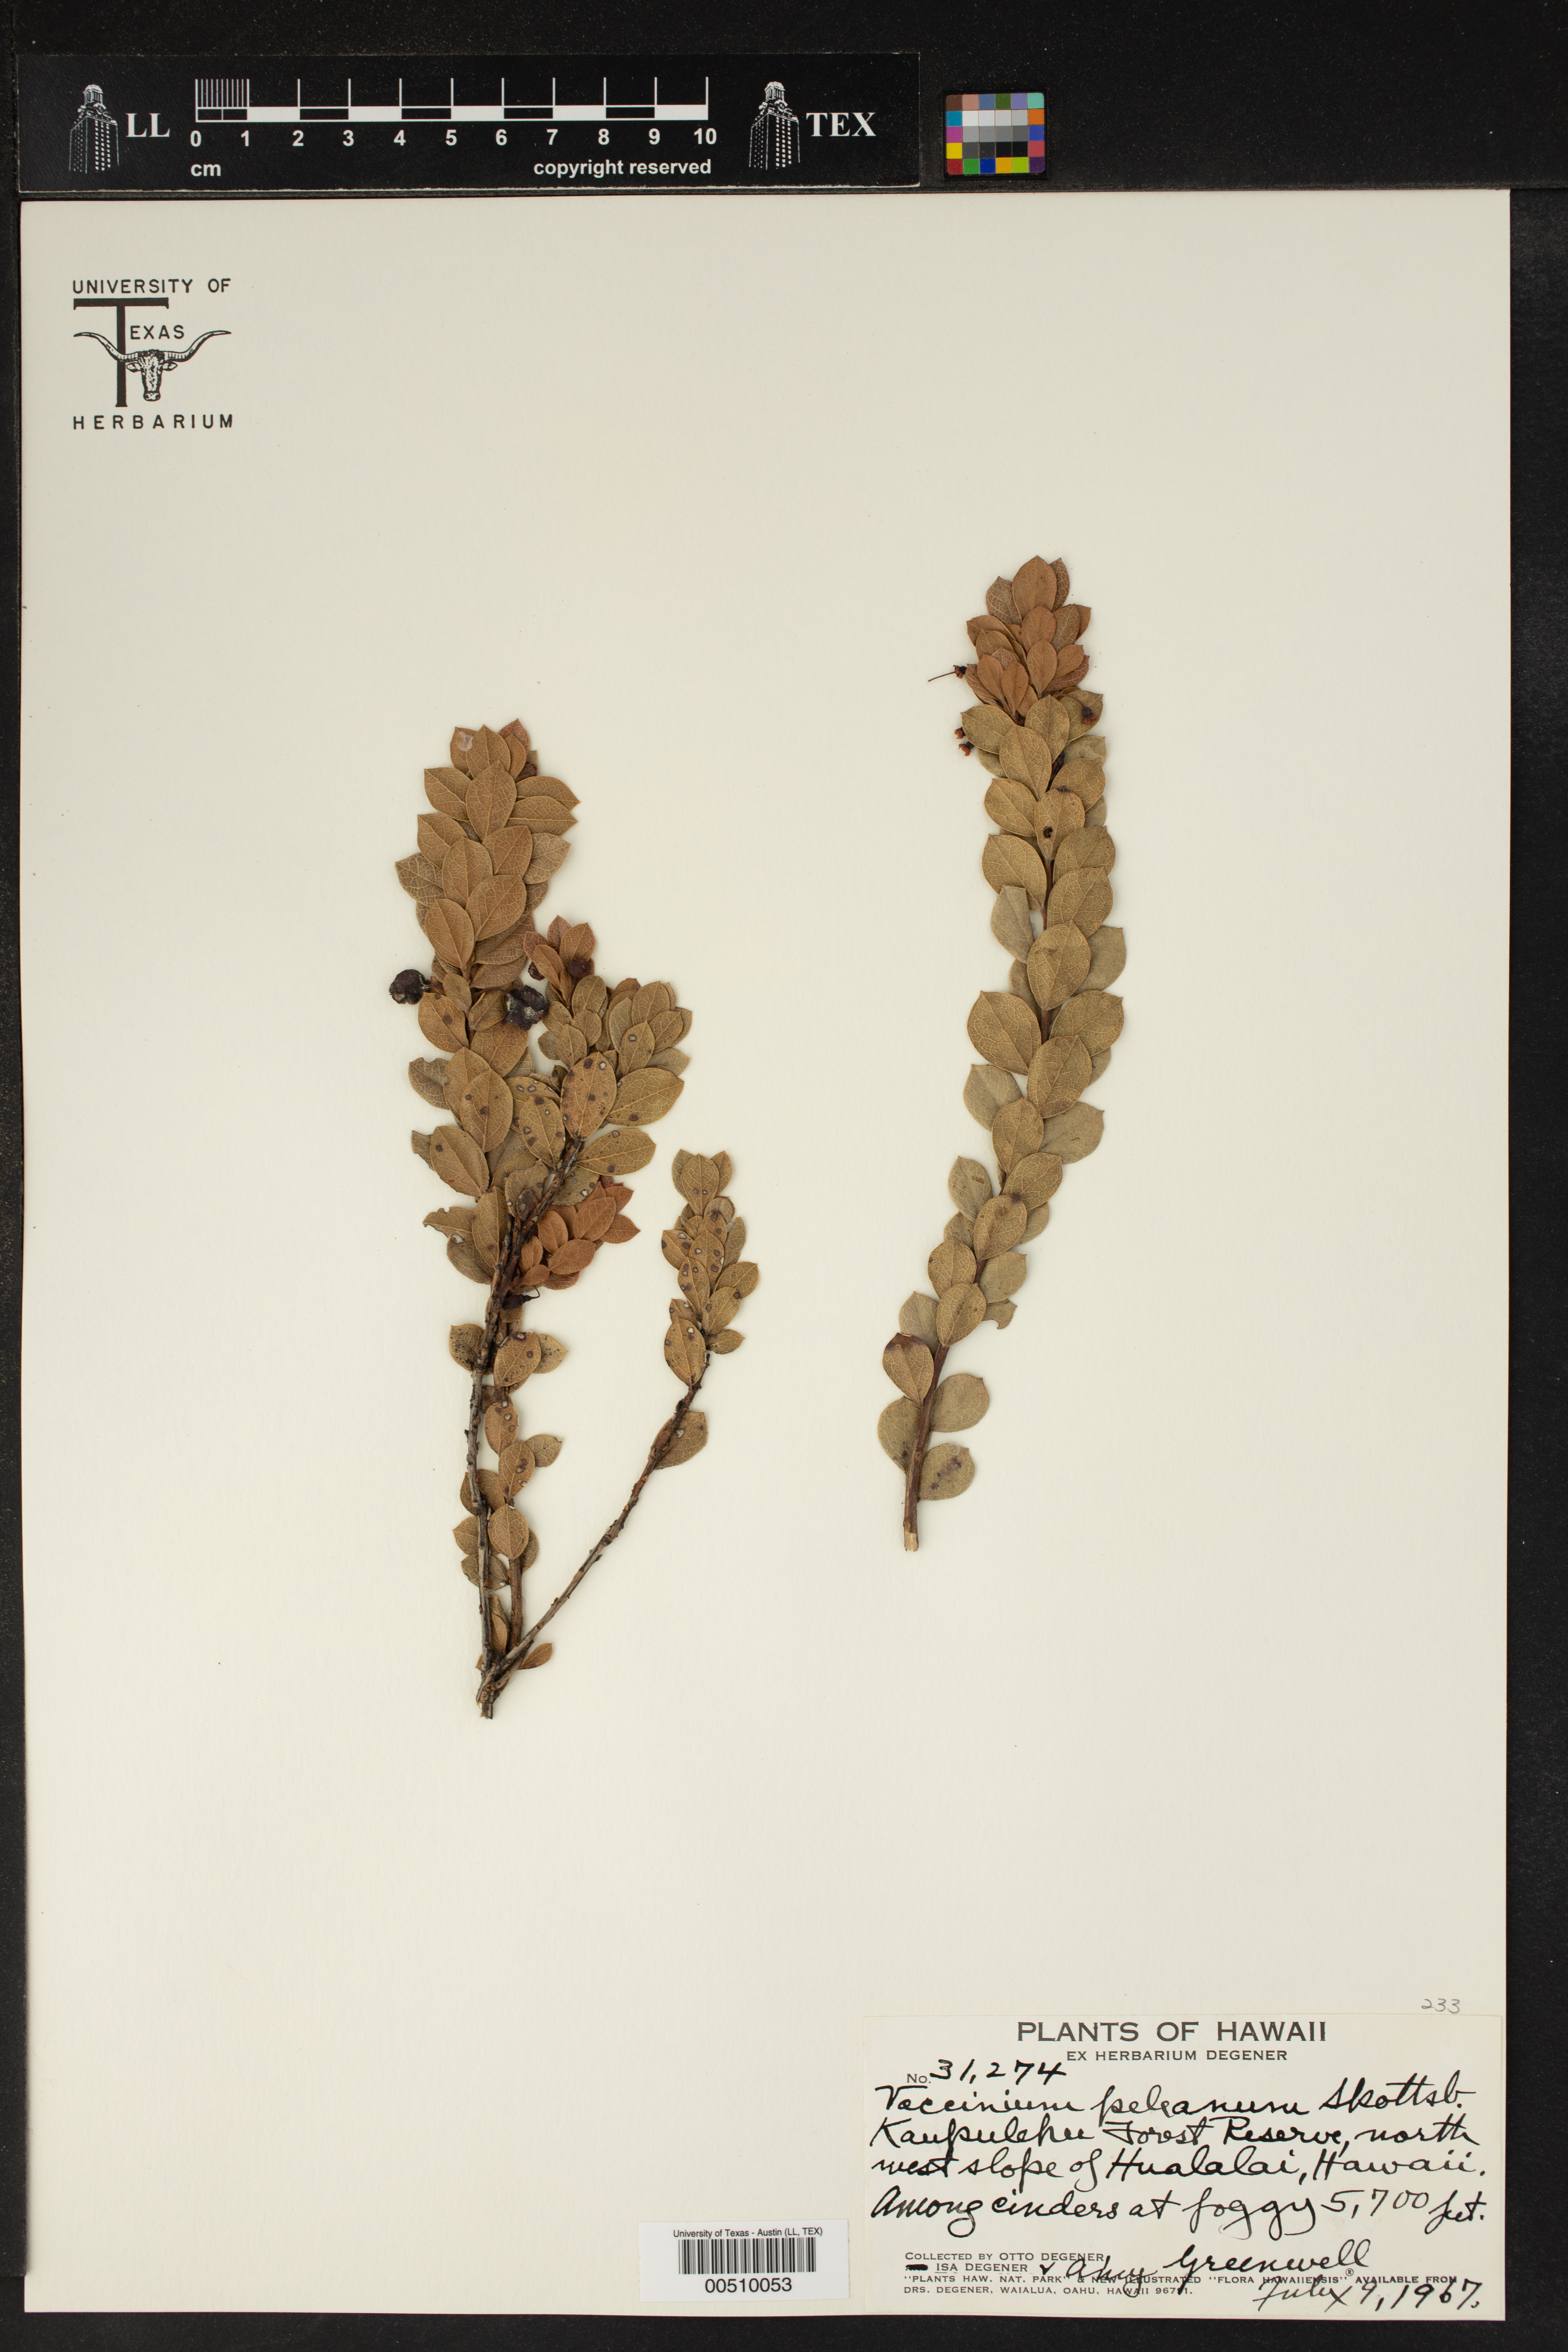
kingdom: Plantae
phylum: Tracheophyta
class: Magnoliopsida
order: Ericales
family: Ericaceae
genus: Vaccinium
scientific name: Vaccinium reticulatum
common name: Ohelo
